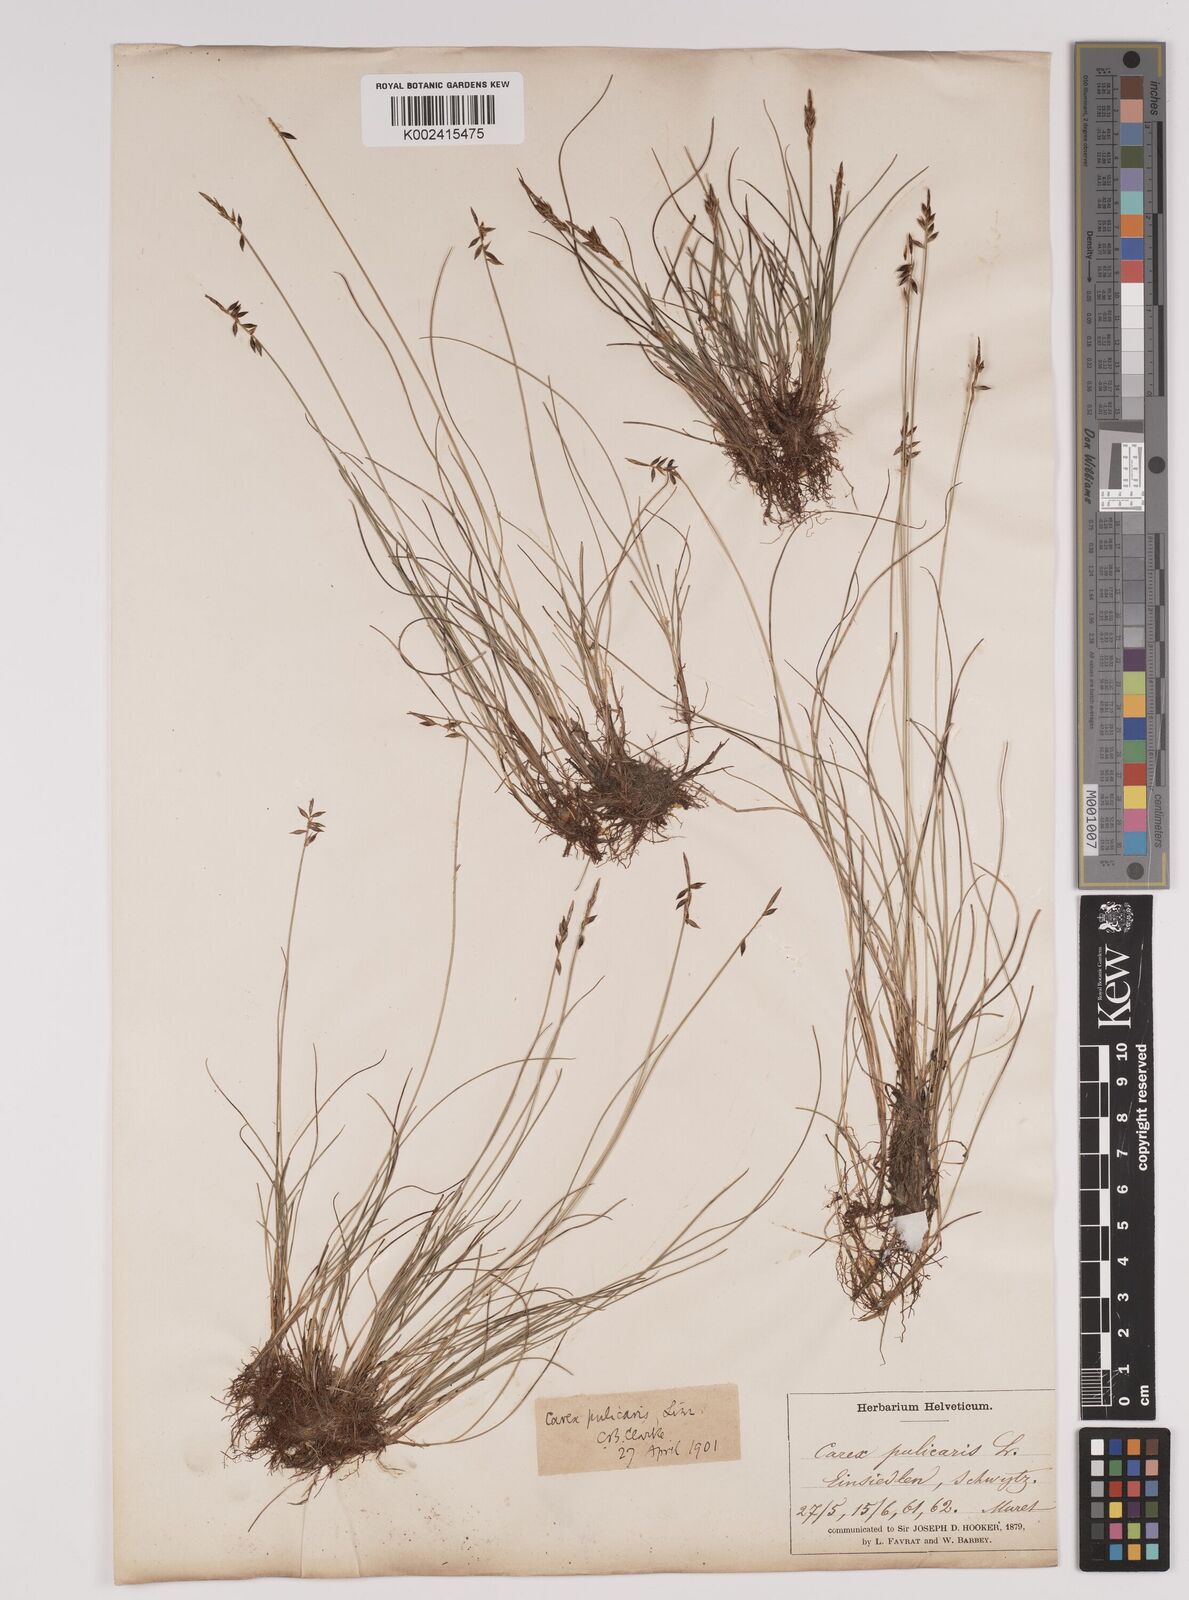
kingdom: Plantae
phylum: Tracheophyta
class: Liliopsida
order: Poales
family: Cyperaceae
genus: Carex
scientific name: Carex pulicaris
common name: Flea sedge
